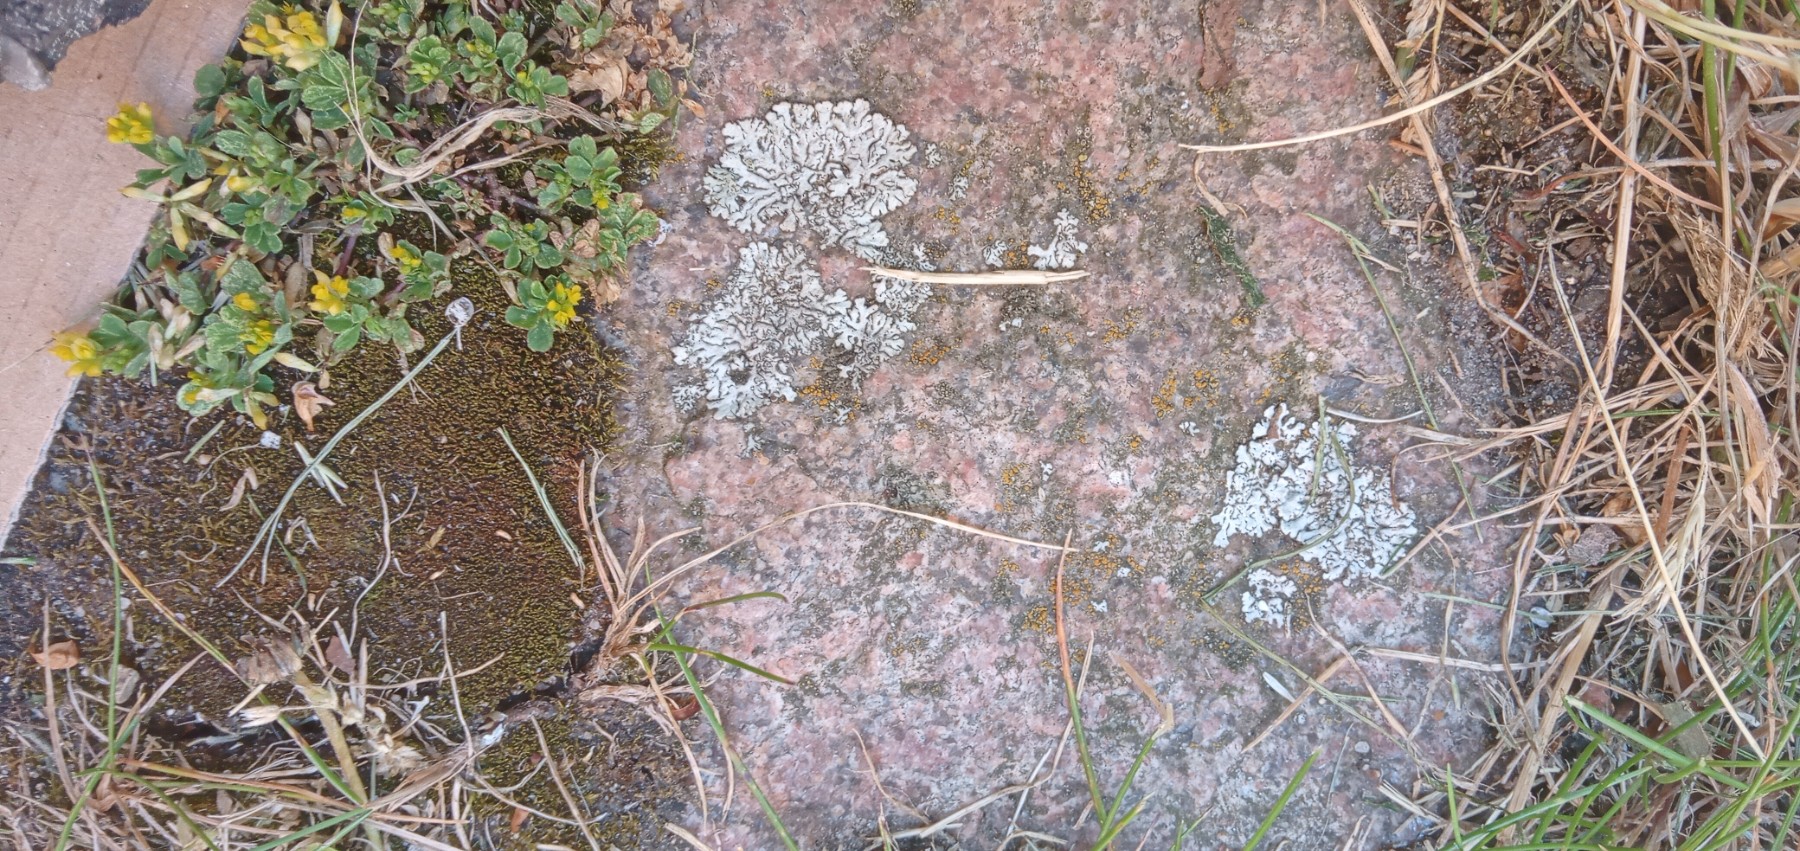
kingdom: Fungi
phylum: Ascomycota
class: Lecanoromycetes
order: Caliciales
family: Physciaceae
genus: Physcia
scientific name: Physcia caesia
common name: blågrå rosetlav
